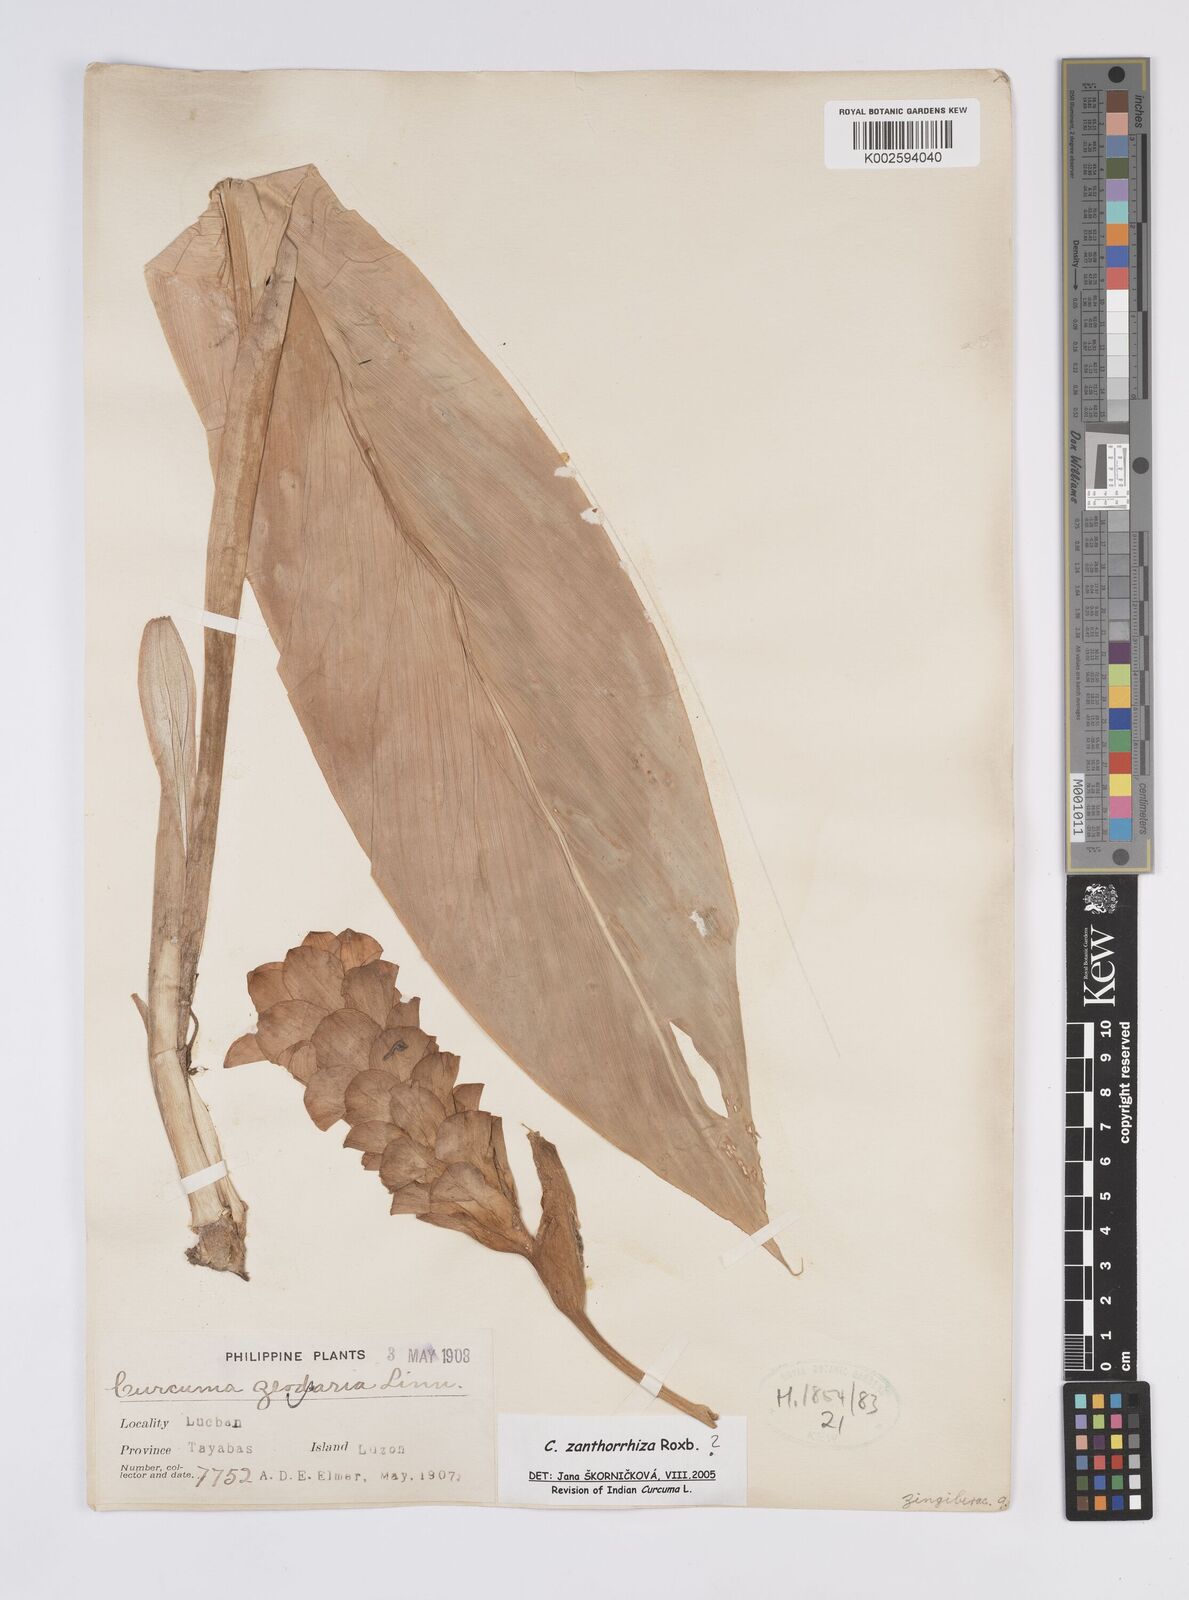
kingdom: Plantae
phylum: Tracheophyta
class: Liliopsida
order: Zingiberales
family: Zingiberaceae
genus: Curcuma
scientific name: Curcuma zanthorrhiza
